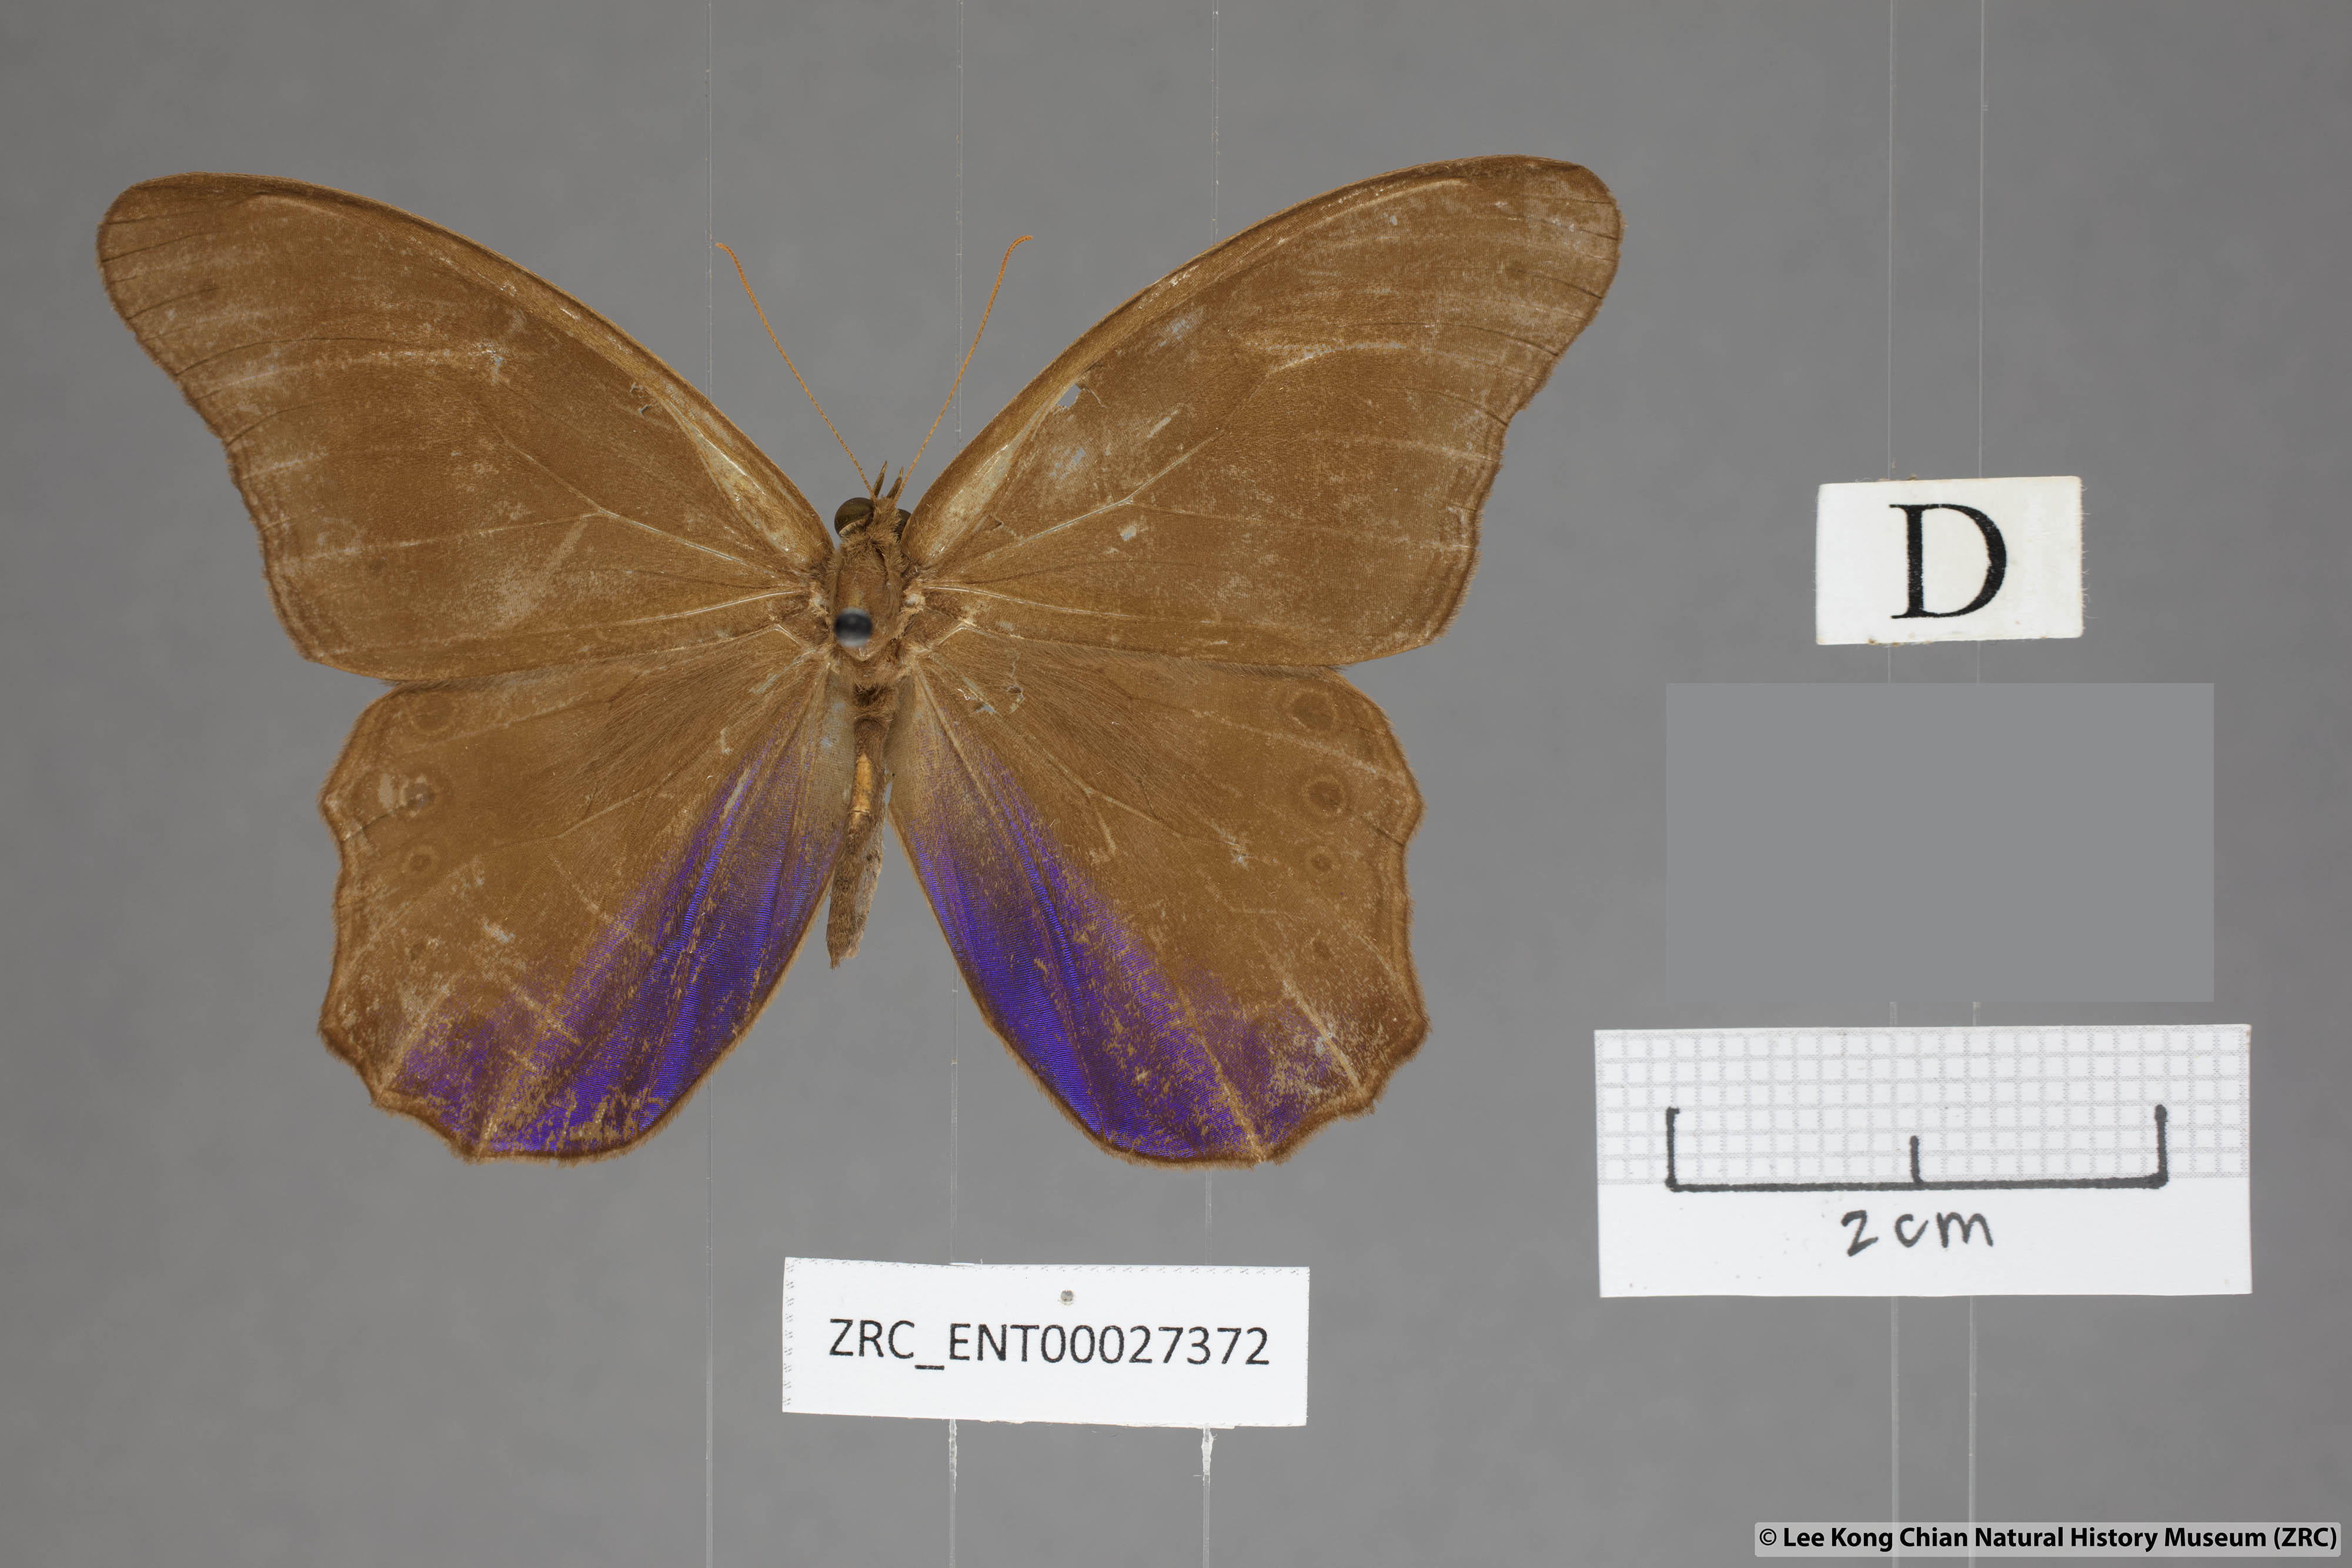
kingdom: Animalia
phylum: Arthropoda
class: Insecta
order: Lepidoptera
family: Nymphalidae
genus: Coelites
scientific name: Coelites euptychioides
